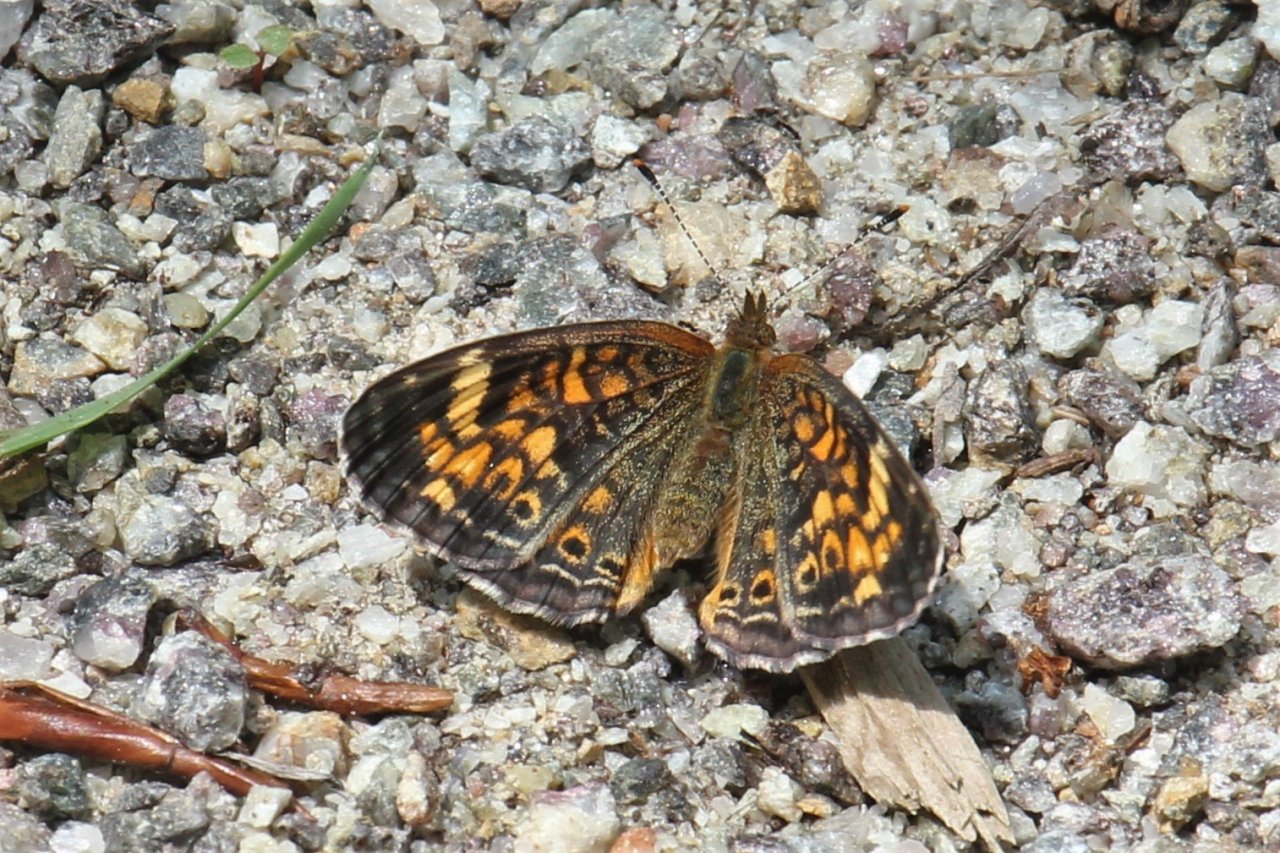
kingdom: Animalia
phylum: Arthropoda
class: Insecta
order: Lepidoptera
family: Nymphalidae
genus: Phyciodes
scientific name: Phyciodes tharos
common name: Northern Crescent
